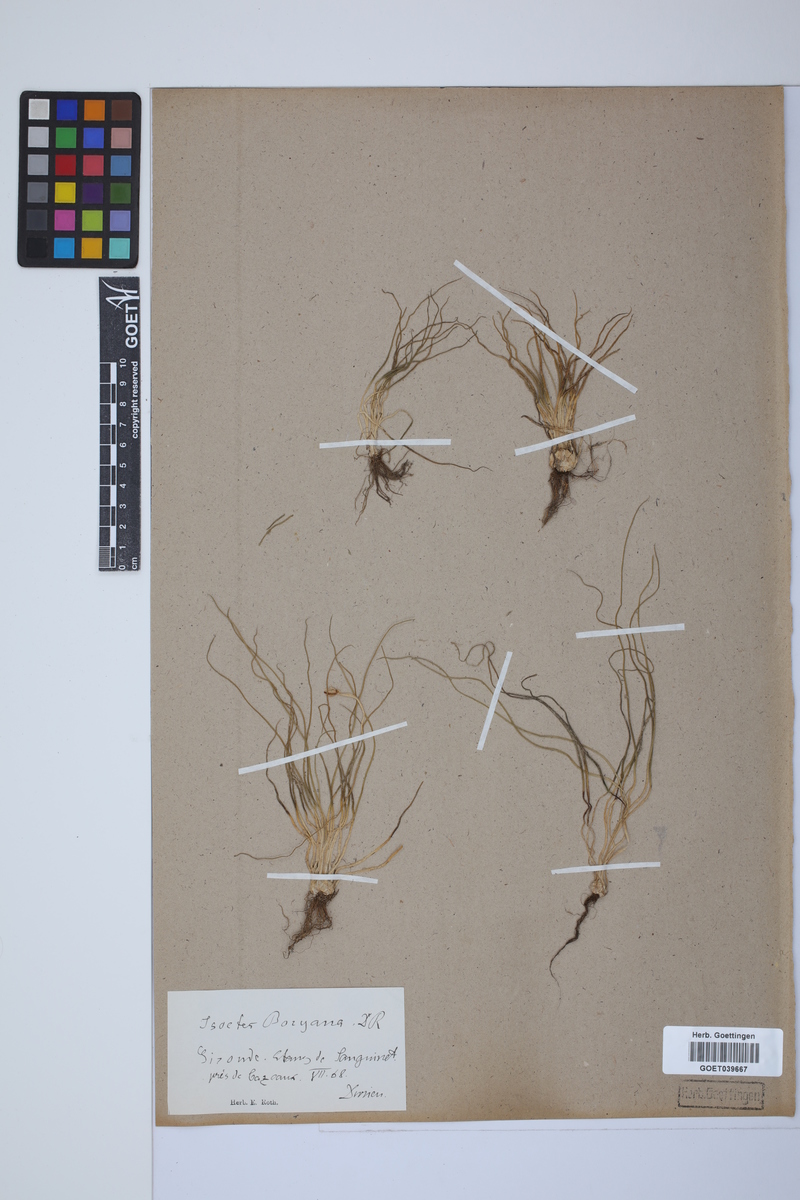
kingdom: Plantae
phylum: Tracheophyta
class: Lycopodiopsida
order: Isoetales
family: Isoetaceae
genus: Isoetes
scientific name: Isoetes boryana
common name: Gascoyne quillwort
